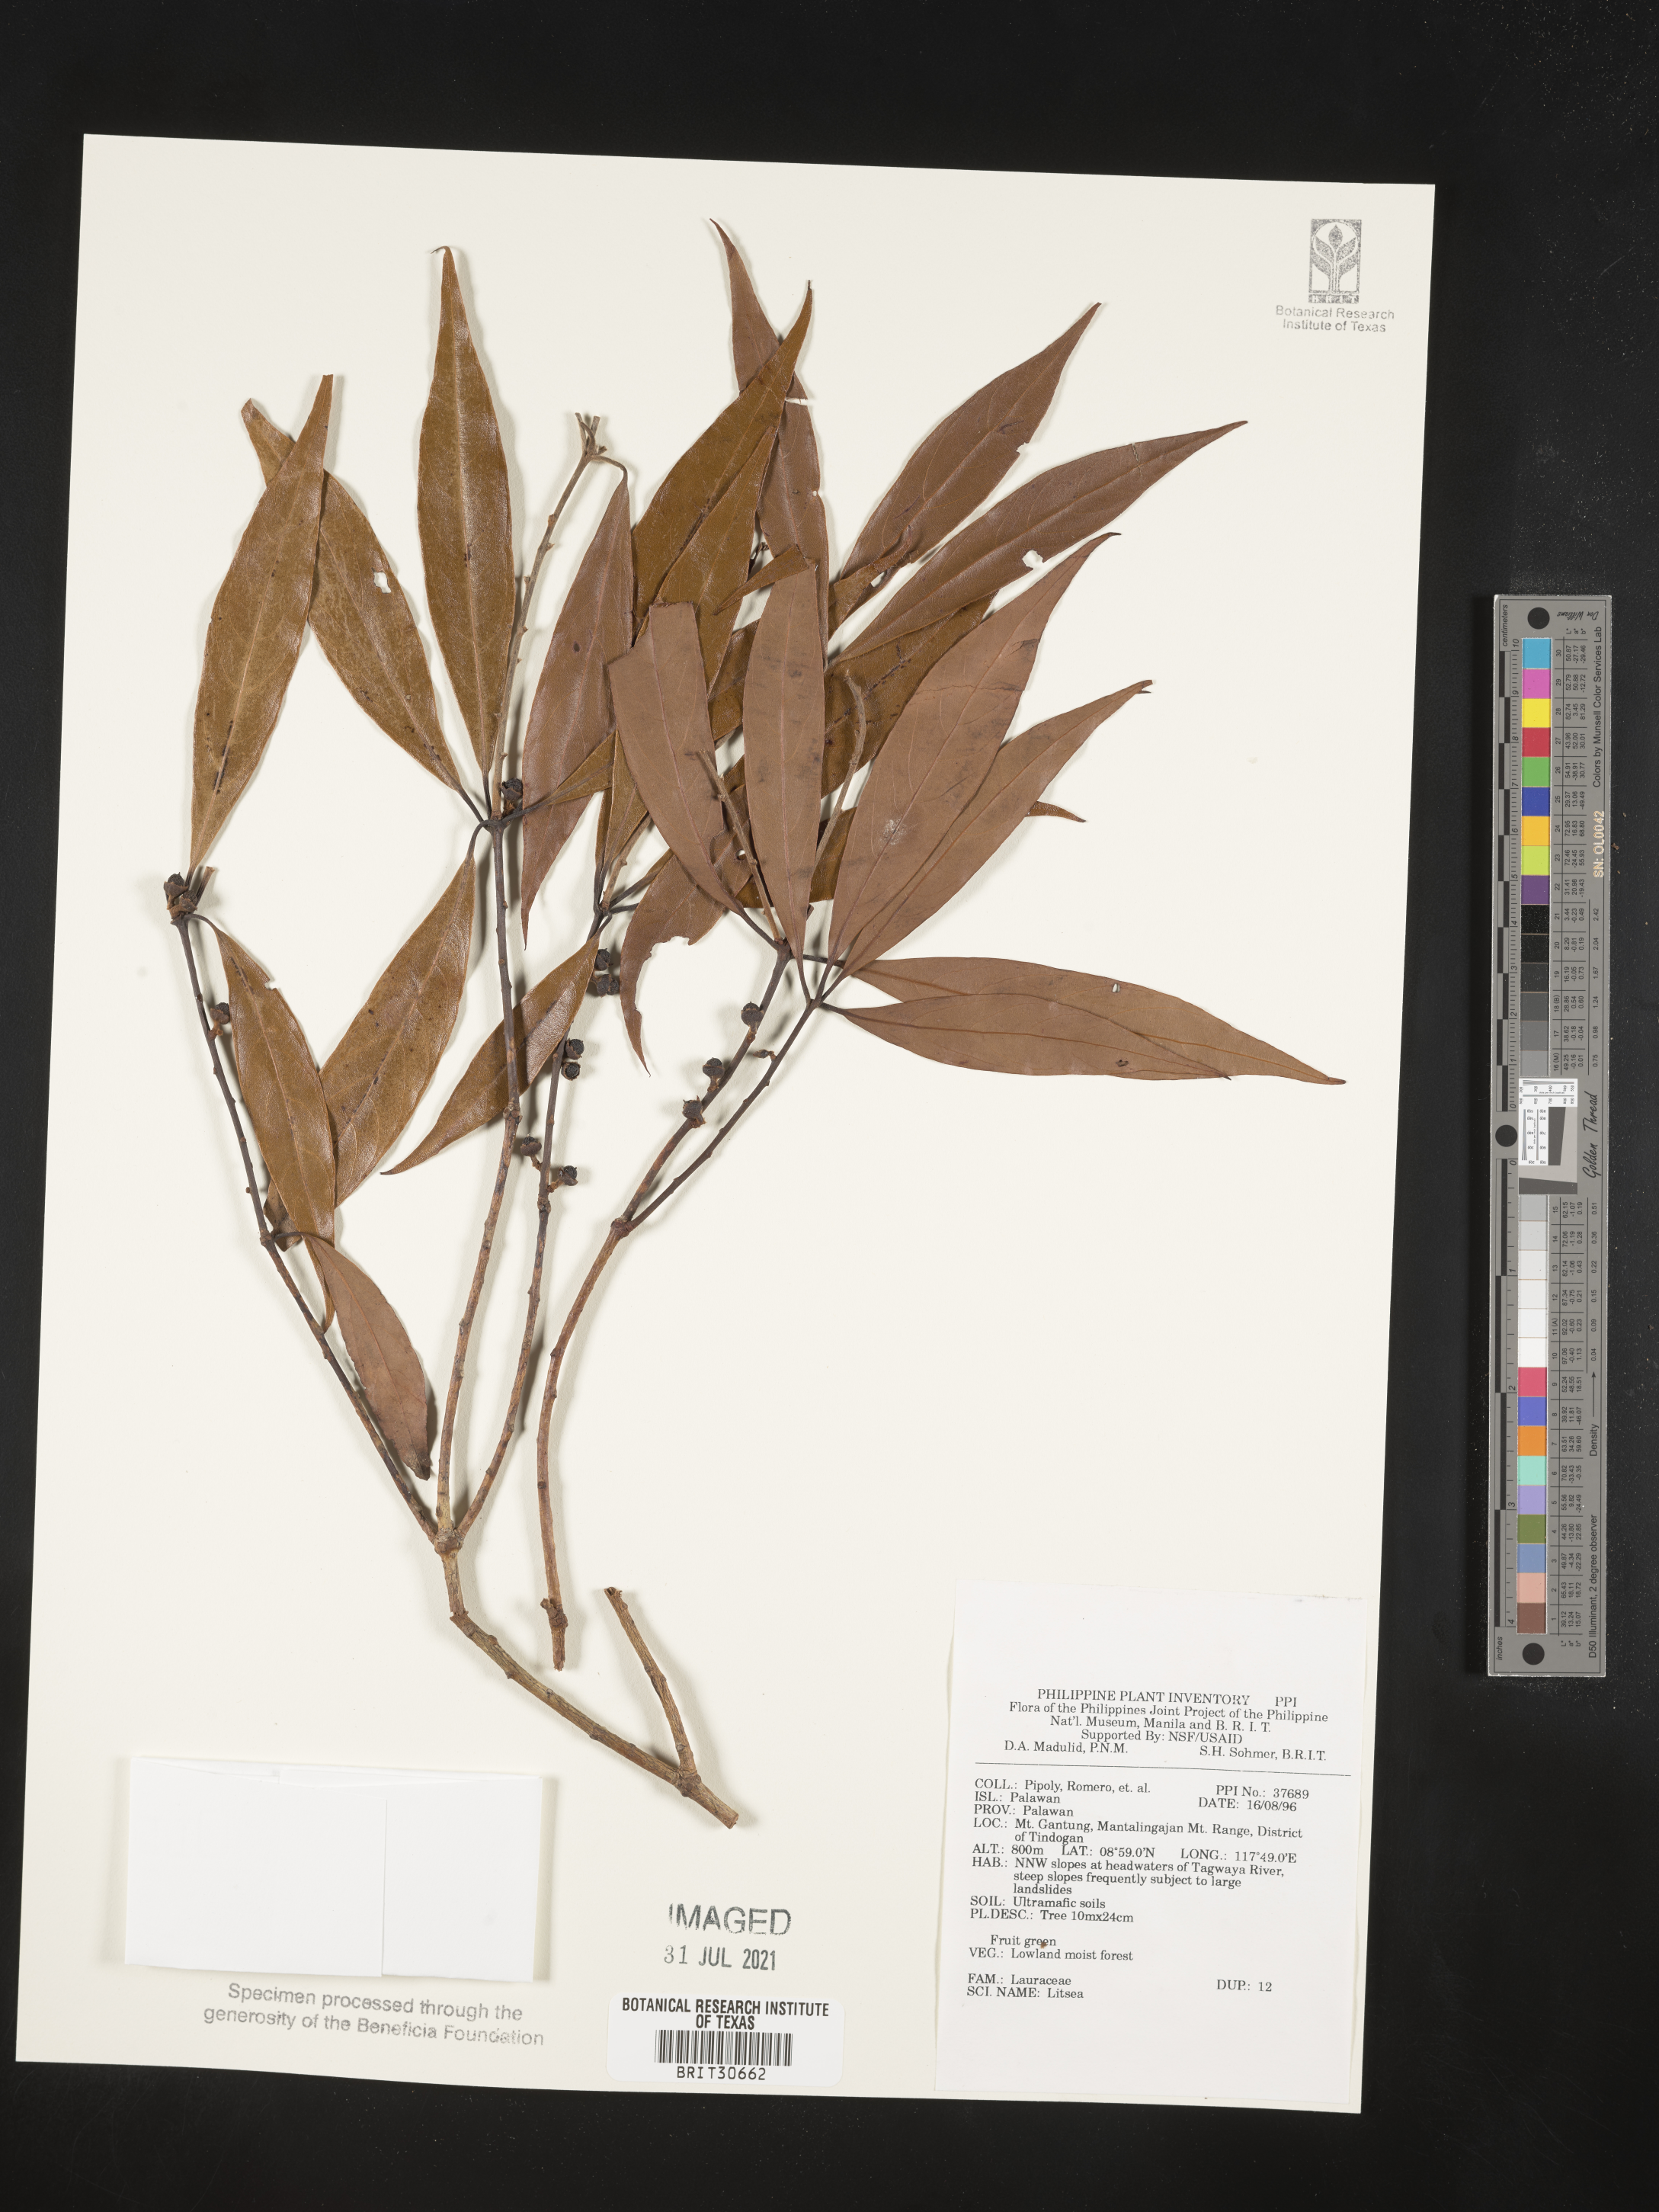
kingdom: Plantae
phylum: Tracheophyta
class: Magnoliopsida
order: Laurales
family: Lauraceae
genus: Litsea
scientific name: Litsea
